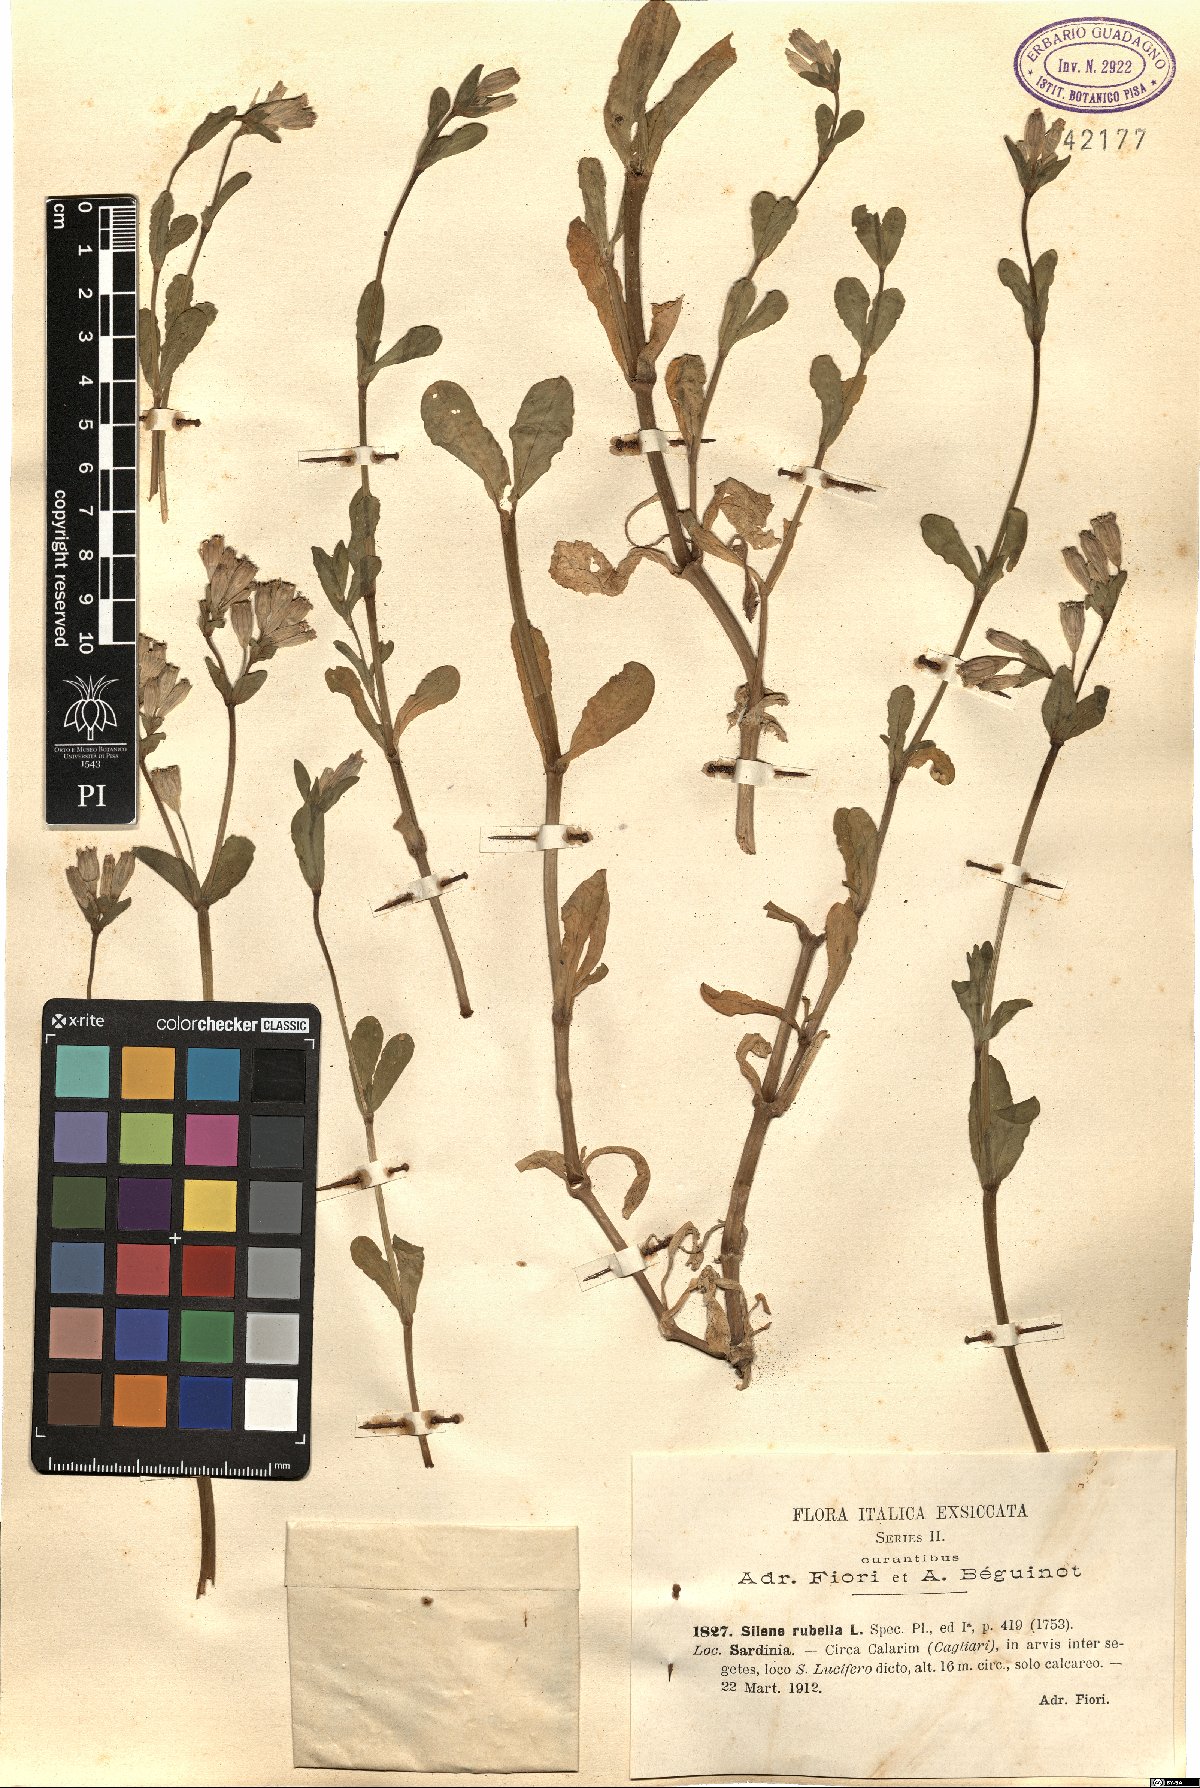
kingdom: Plantae
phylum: Tracheophyta
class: Magnoliopsida
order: Caryophyllales
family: Caryophyllaceae
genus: Silene
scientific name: Silene rubella
